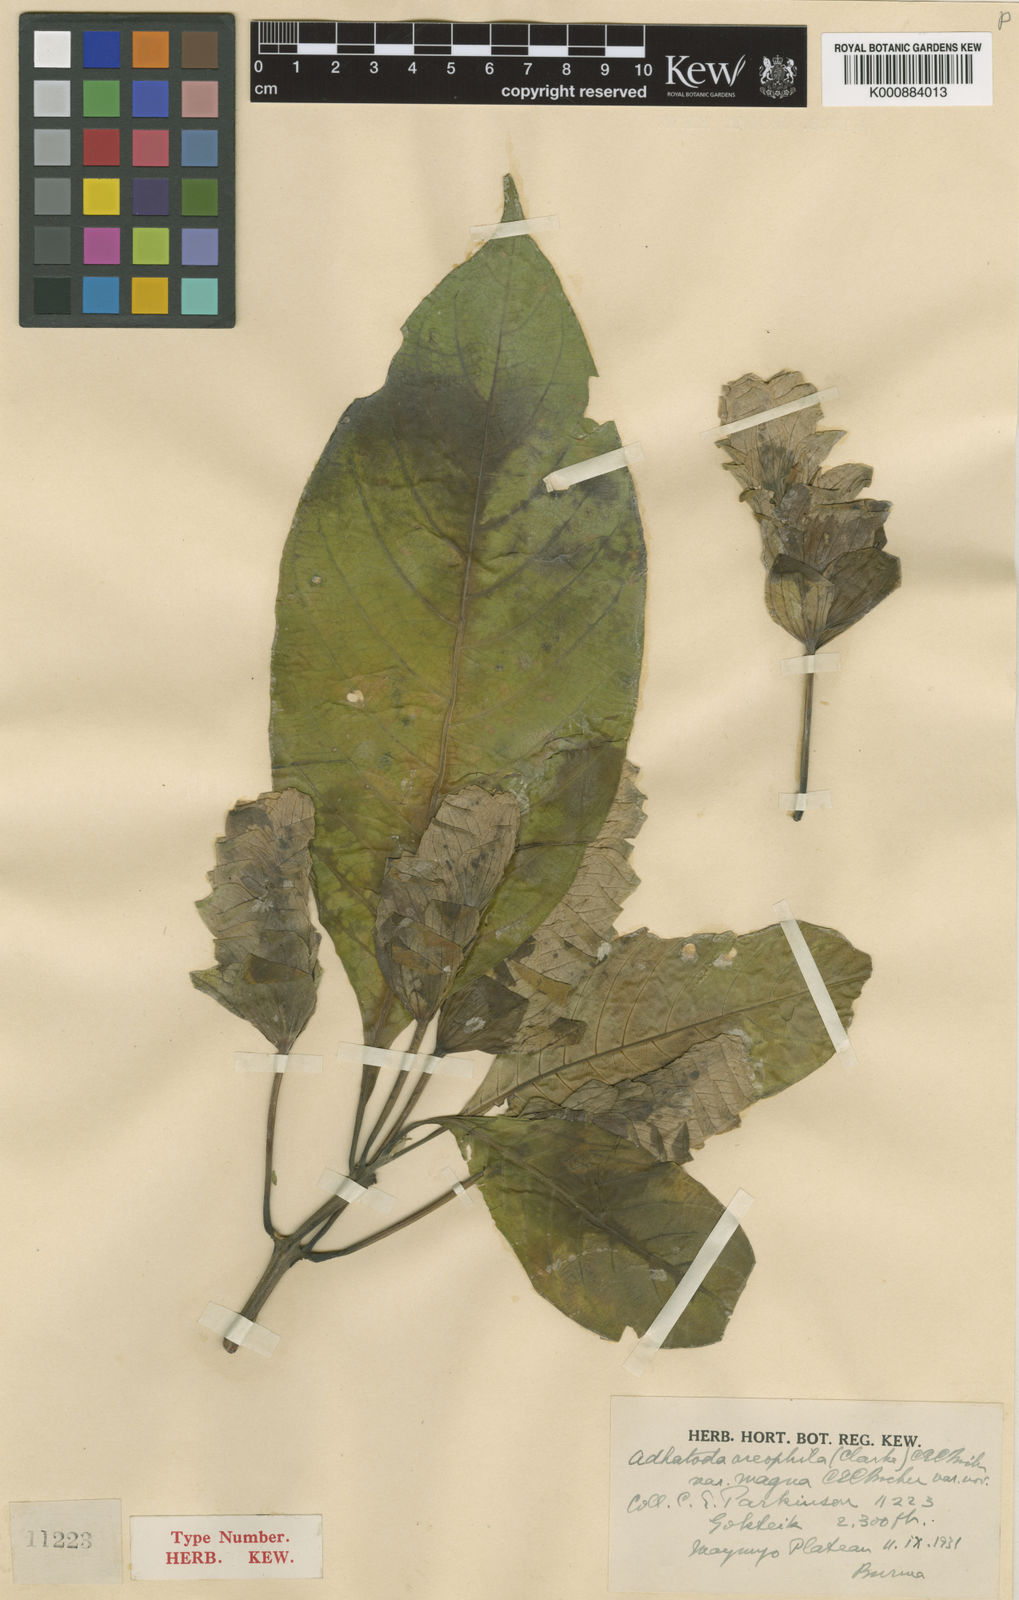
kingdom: Plantae
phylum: Tracheophyta
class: Magnoliopsida
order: Lamiales
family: Acanthaceae
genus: Justicia
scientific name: Justicia oreophila
